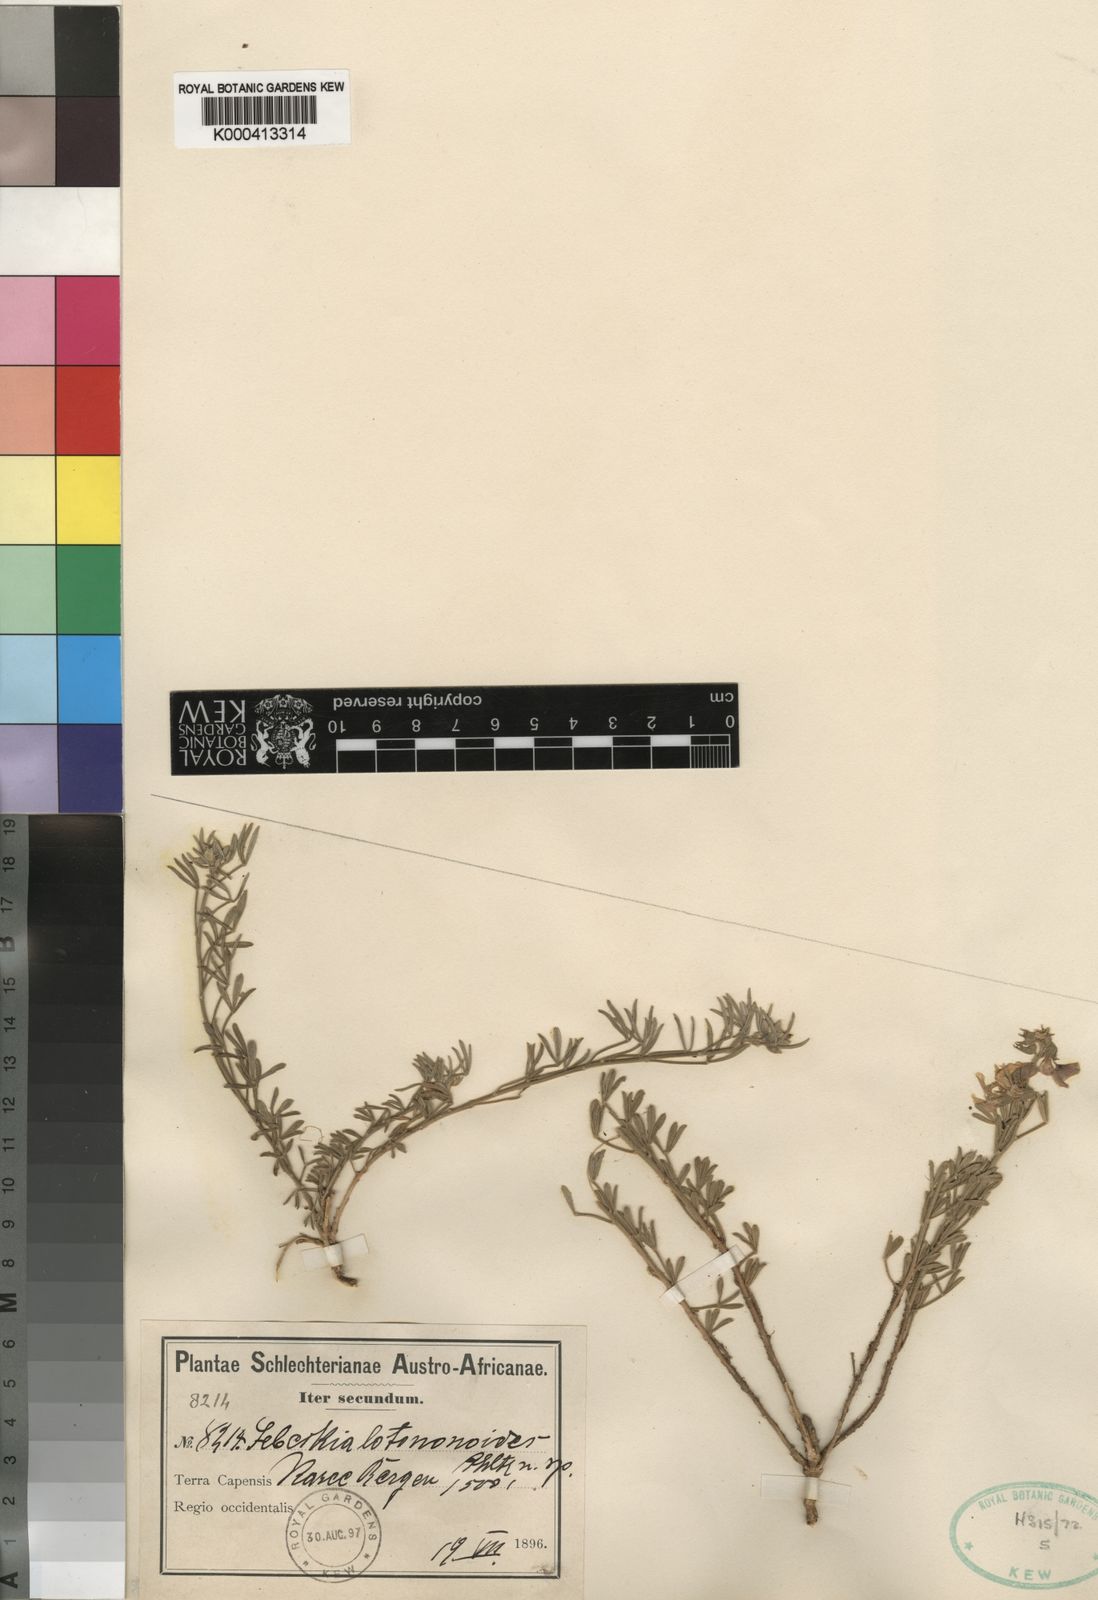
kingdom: Plantae
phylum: Tracheophyta
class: Magnoliopsida
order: Fabales
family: Fabaceae
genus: Lebeckia
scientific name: Lebeckia
